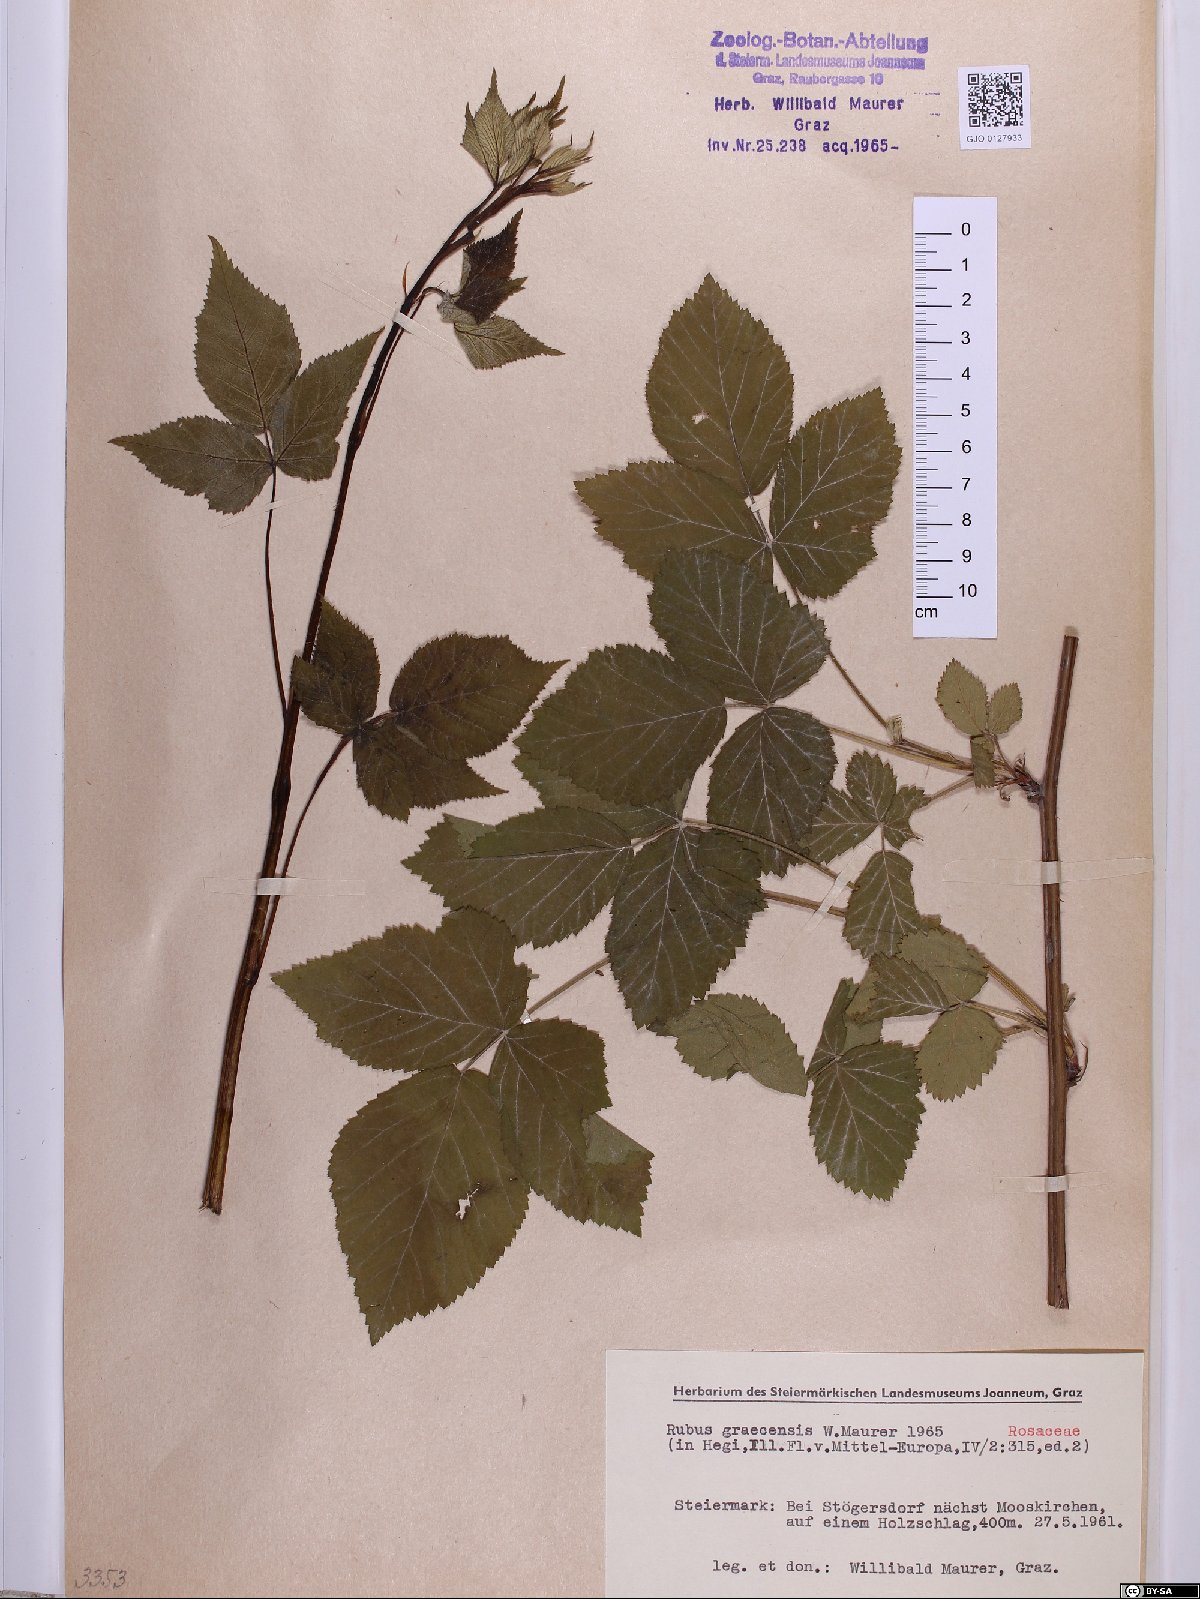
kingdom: Plantae
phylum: Tracheophyta
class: Magnoliopsida
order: Rosales
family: Rosaceae
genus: Rubus
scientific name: Rubus graecensis
